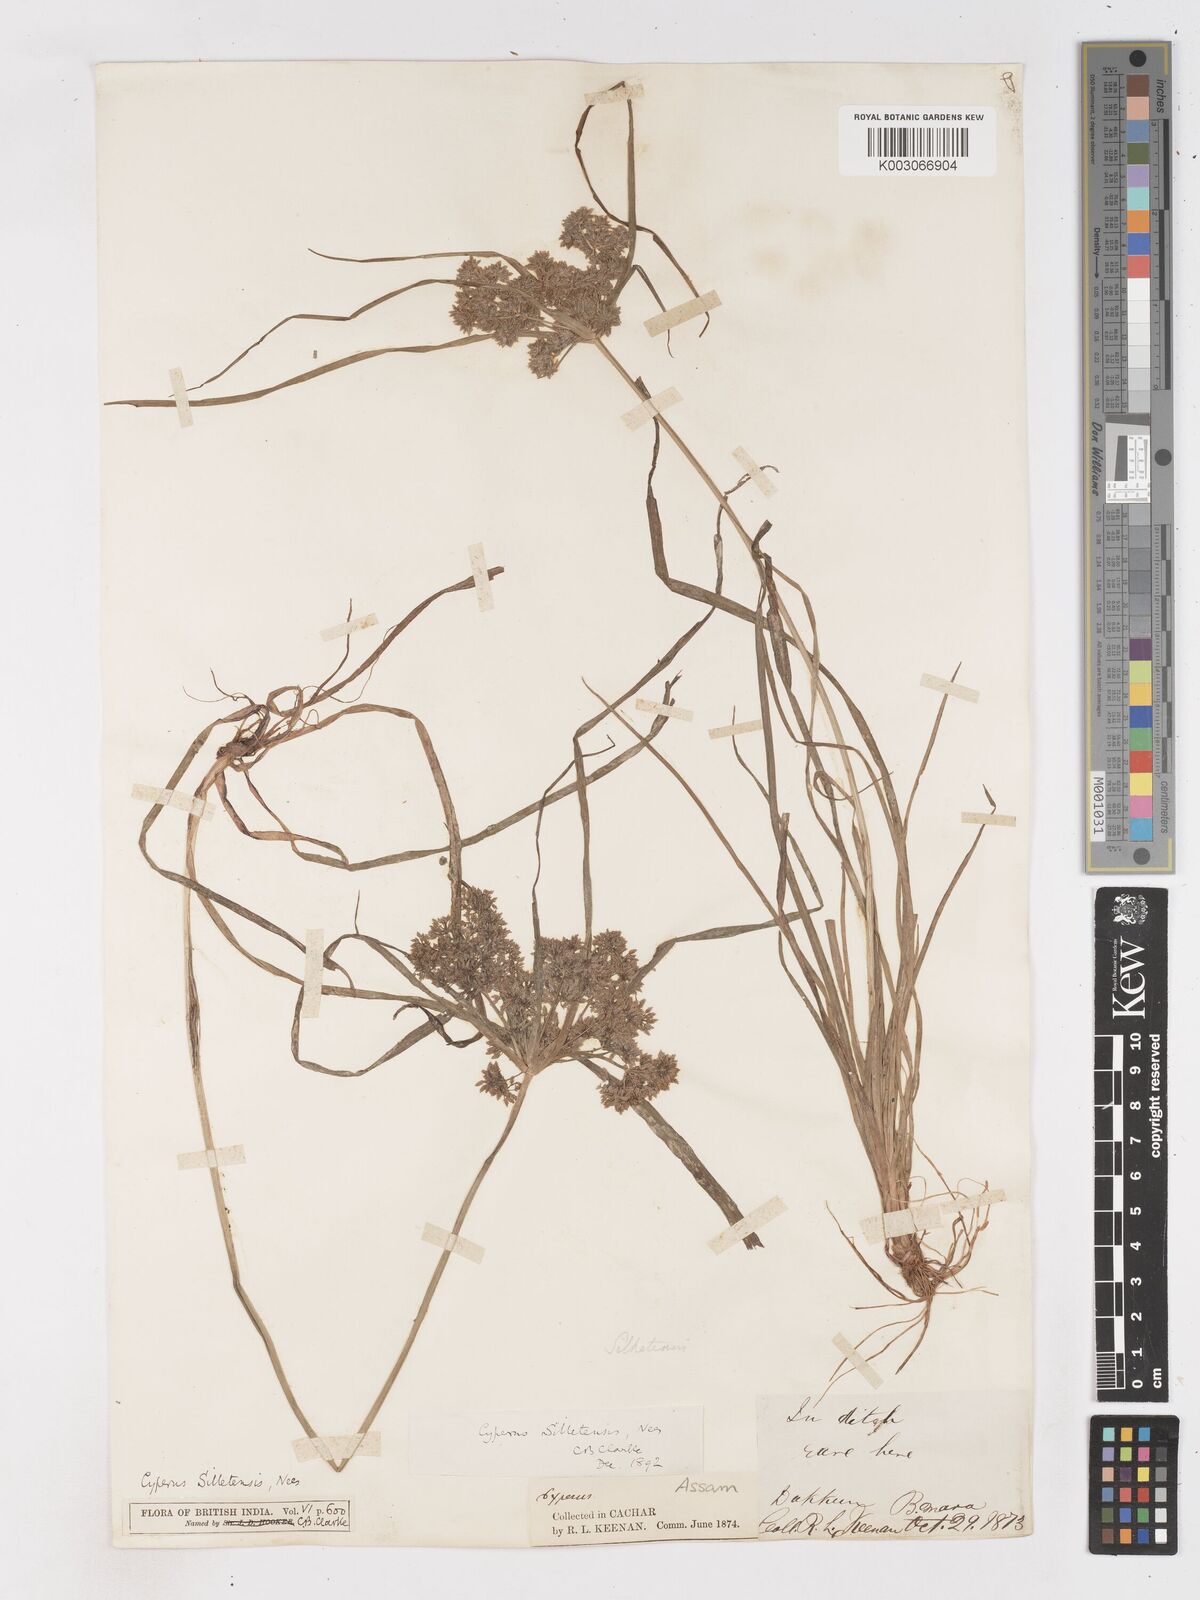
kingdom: Plantae
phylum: Tracheophyta
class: Liliopsida
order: Poales
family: Cyperaceae
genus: Cyperus
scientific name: Cyperus silletensis
